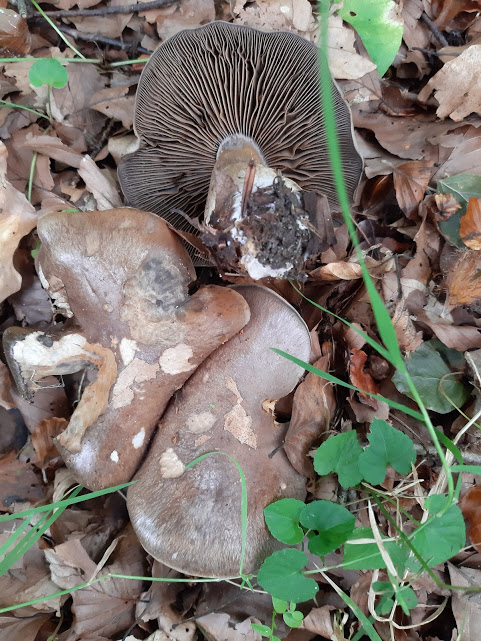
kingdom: Fungi
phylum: Basidiomycota
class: Agaricomycetes
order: Agaricales
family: Cortinariaceae
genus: Cortinarius
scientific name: Cortinarius
